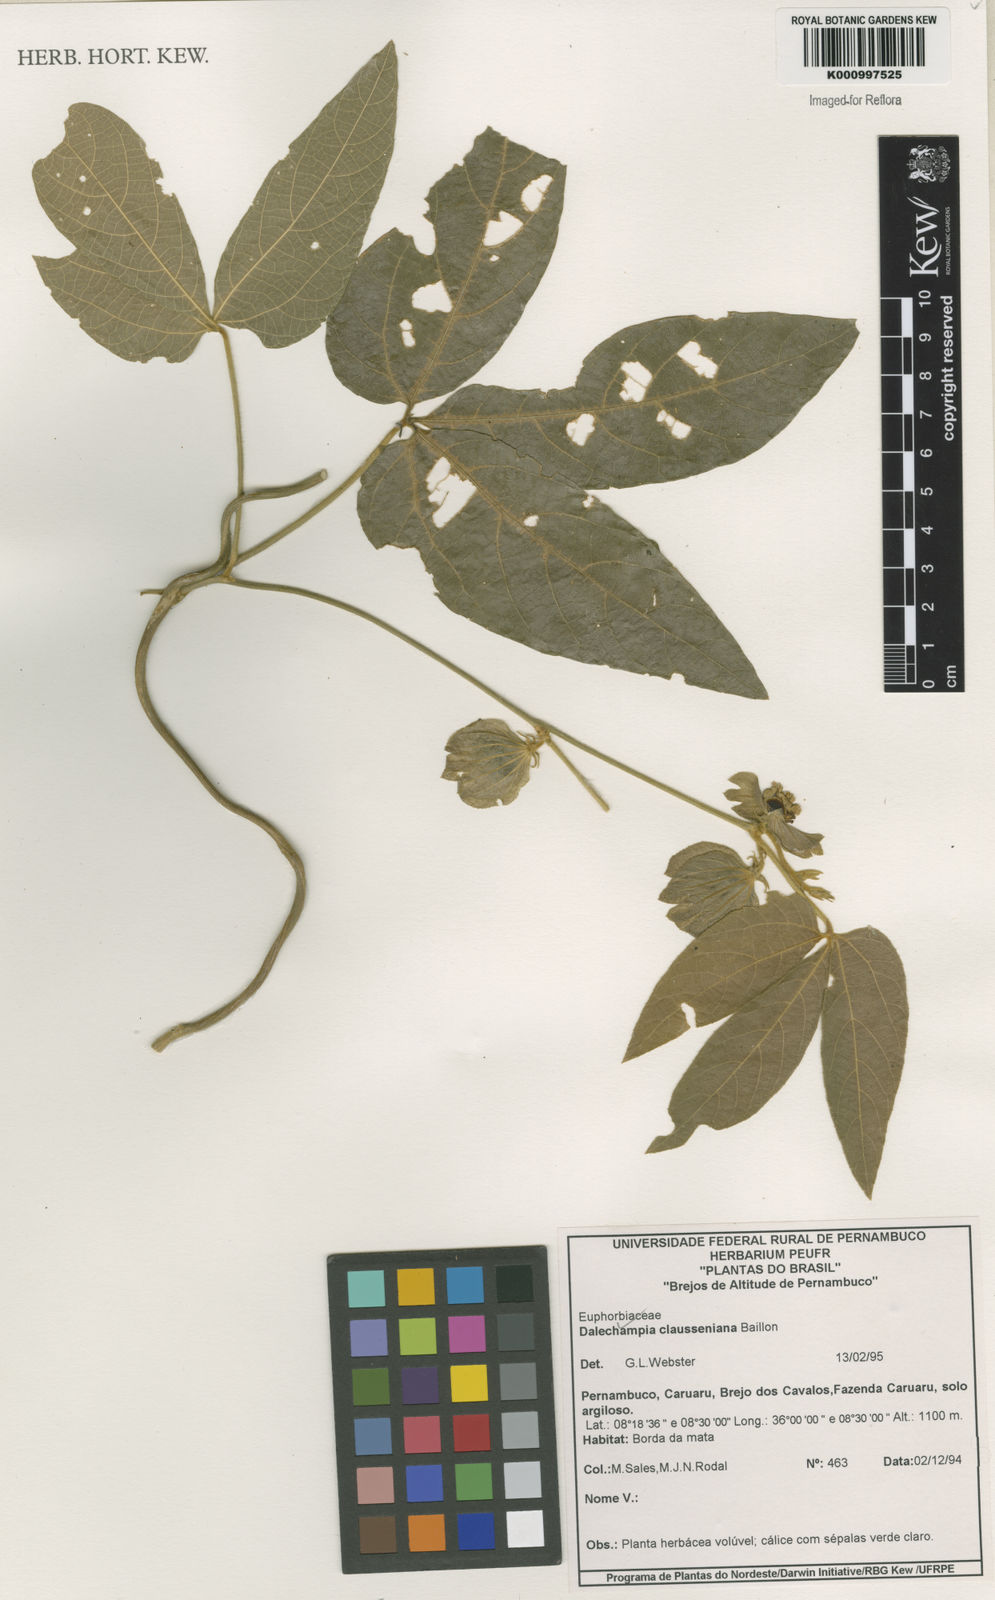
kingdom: Plantae
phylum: Tracheophyta
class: Magnoliopsida
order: Malpighiales
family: Euphorbiaceae
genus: Dalechampia
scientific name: Dalechampia clausseniana
